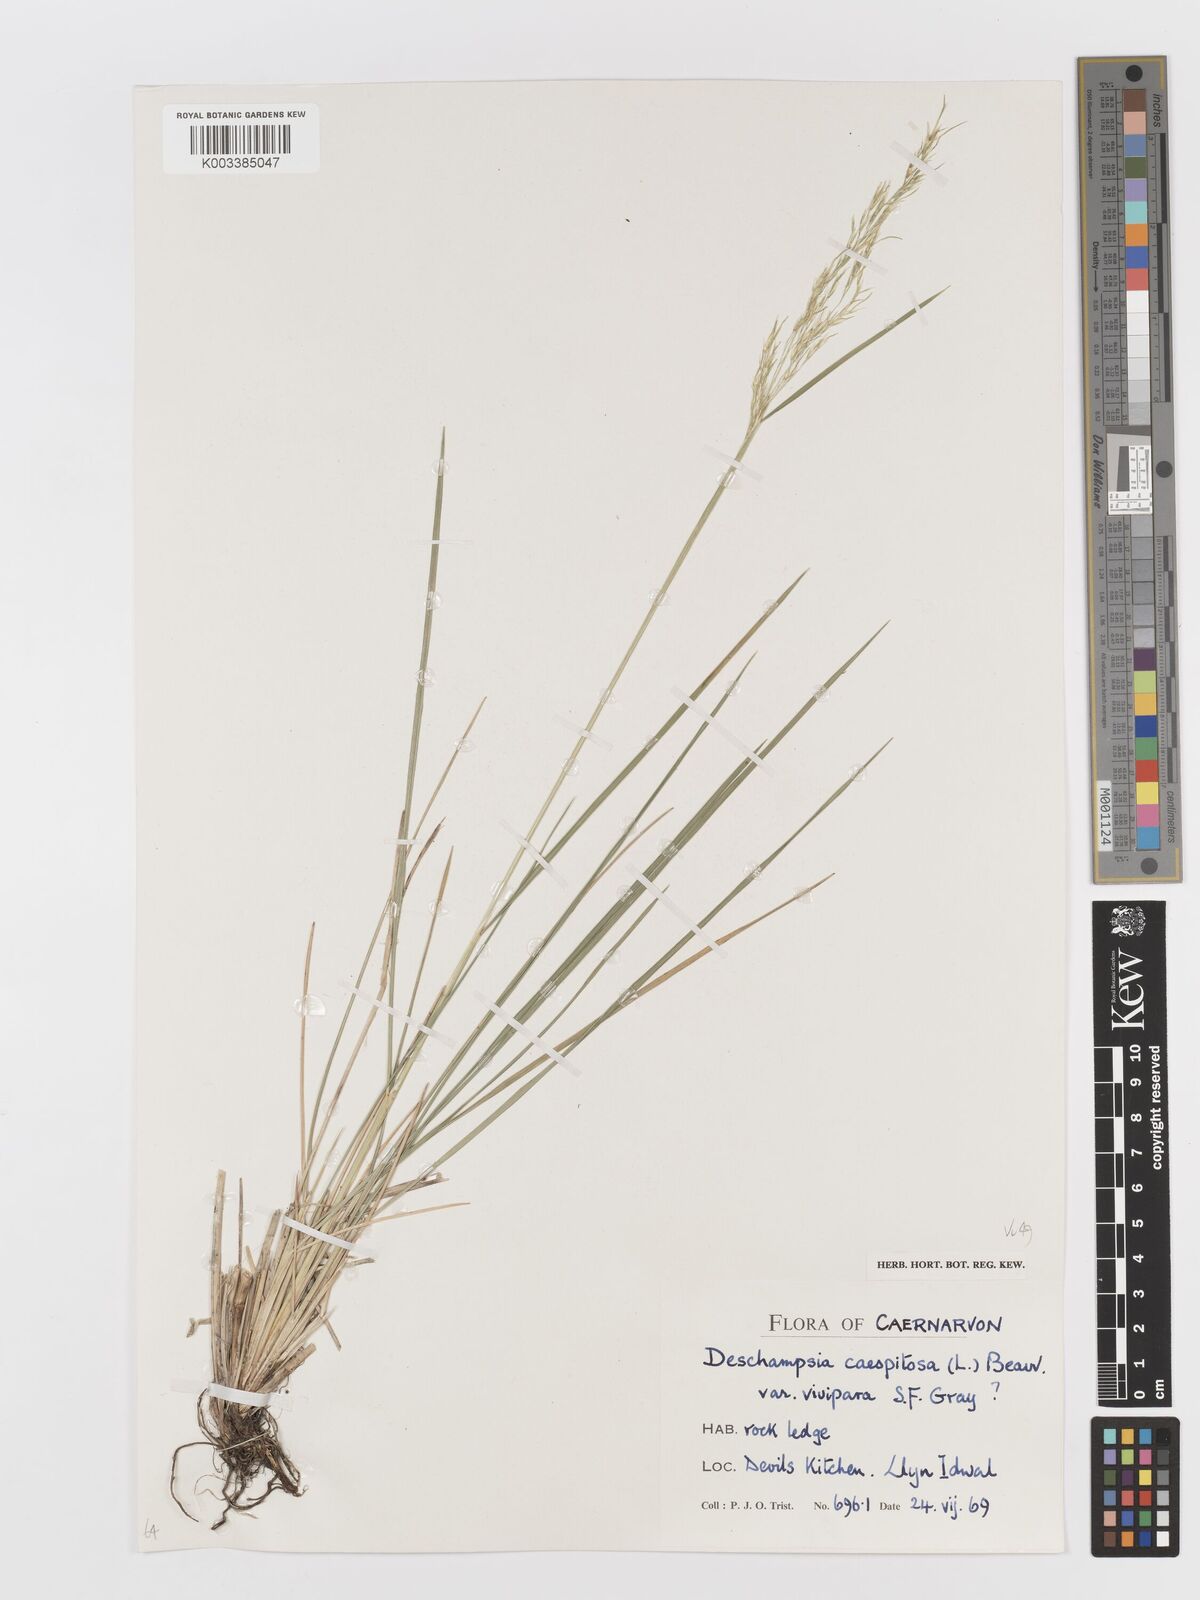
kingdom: Plantae
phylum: Tracheophyta
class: Liliopsida
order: Poales
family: Poaceae
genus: Deschampsia
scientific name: Deschampsia cespitosa
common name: Tufted hair-grass
